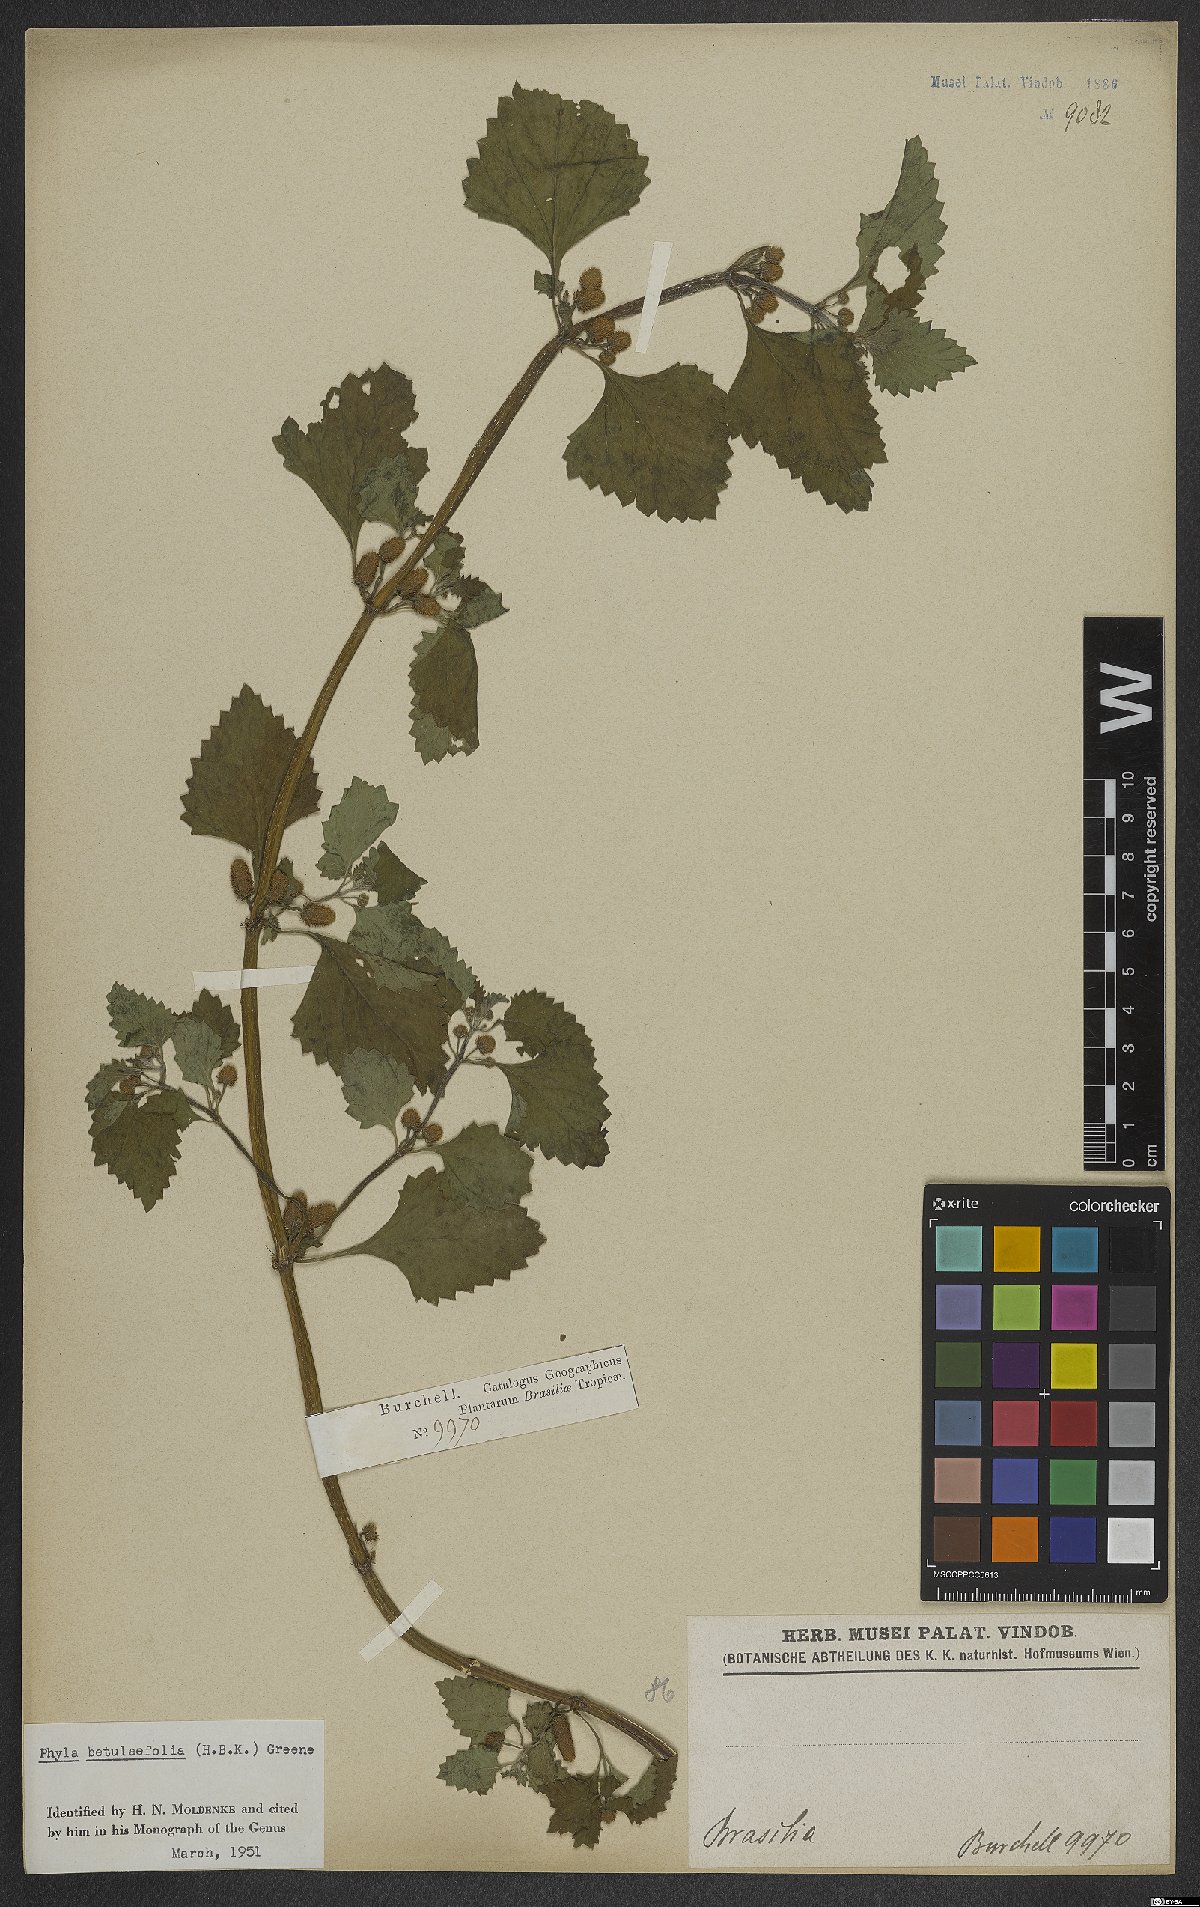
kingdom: Plantae
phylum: Tracheophyta
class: Magnoliopsida
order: Lamiales
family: Verbenaceae
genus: Phyla
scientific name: Phyla betulifolia
